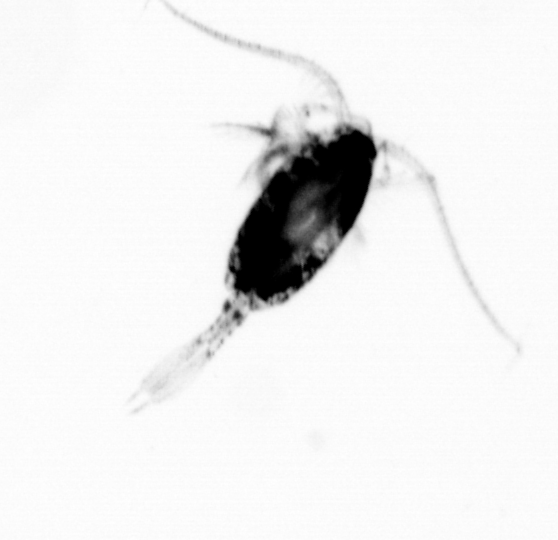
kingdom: Animalia
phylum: Arthropoda
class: Copepoda
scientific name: Copepoda
